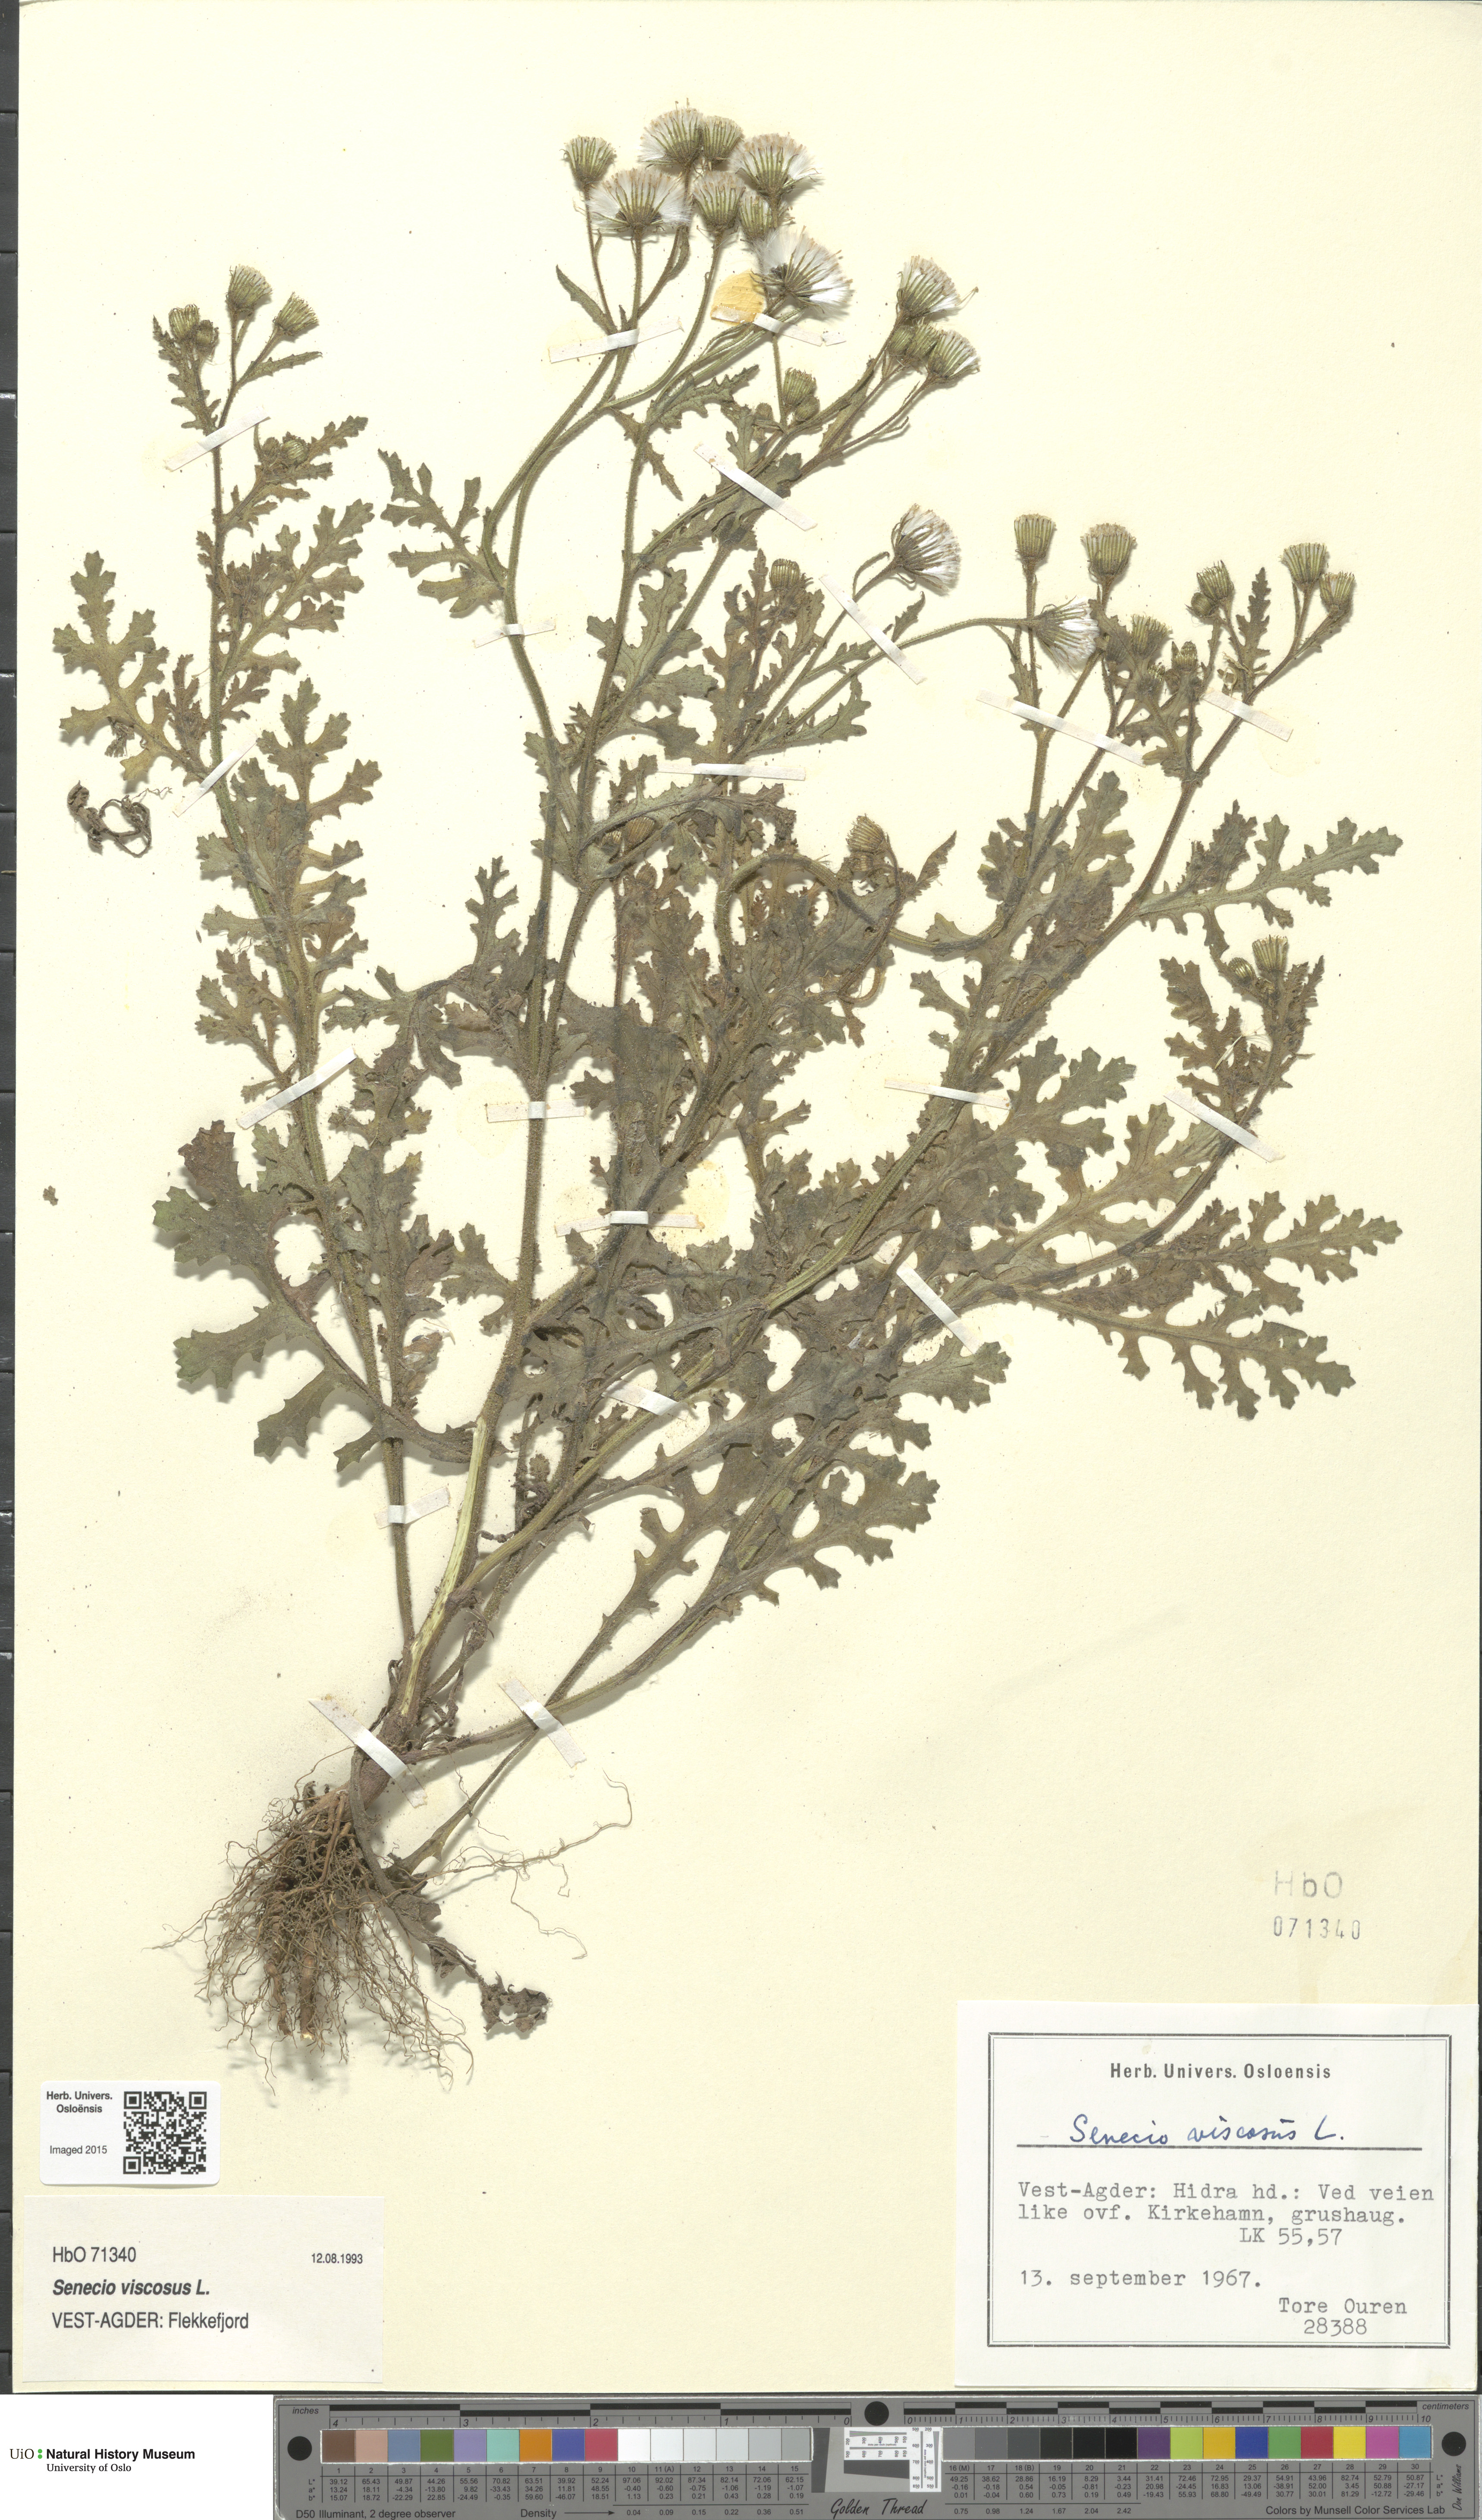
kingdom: Plantae
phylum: Tracheophyta
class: Magnoliopsida
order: Asterales
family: Asteraceae
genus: Senecio
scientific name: Senecio viscosus
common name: Sticky groundsel
